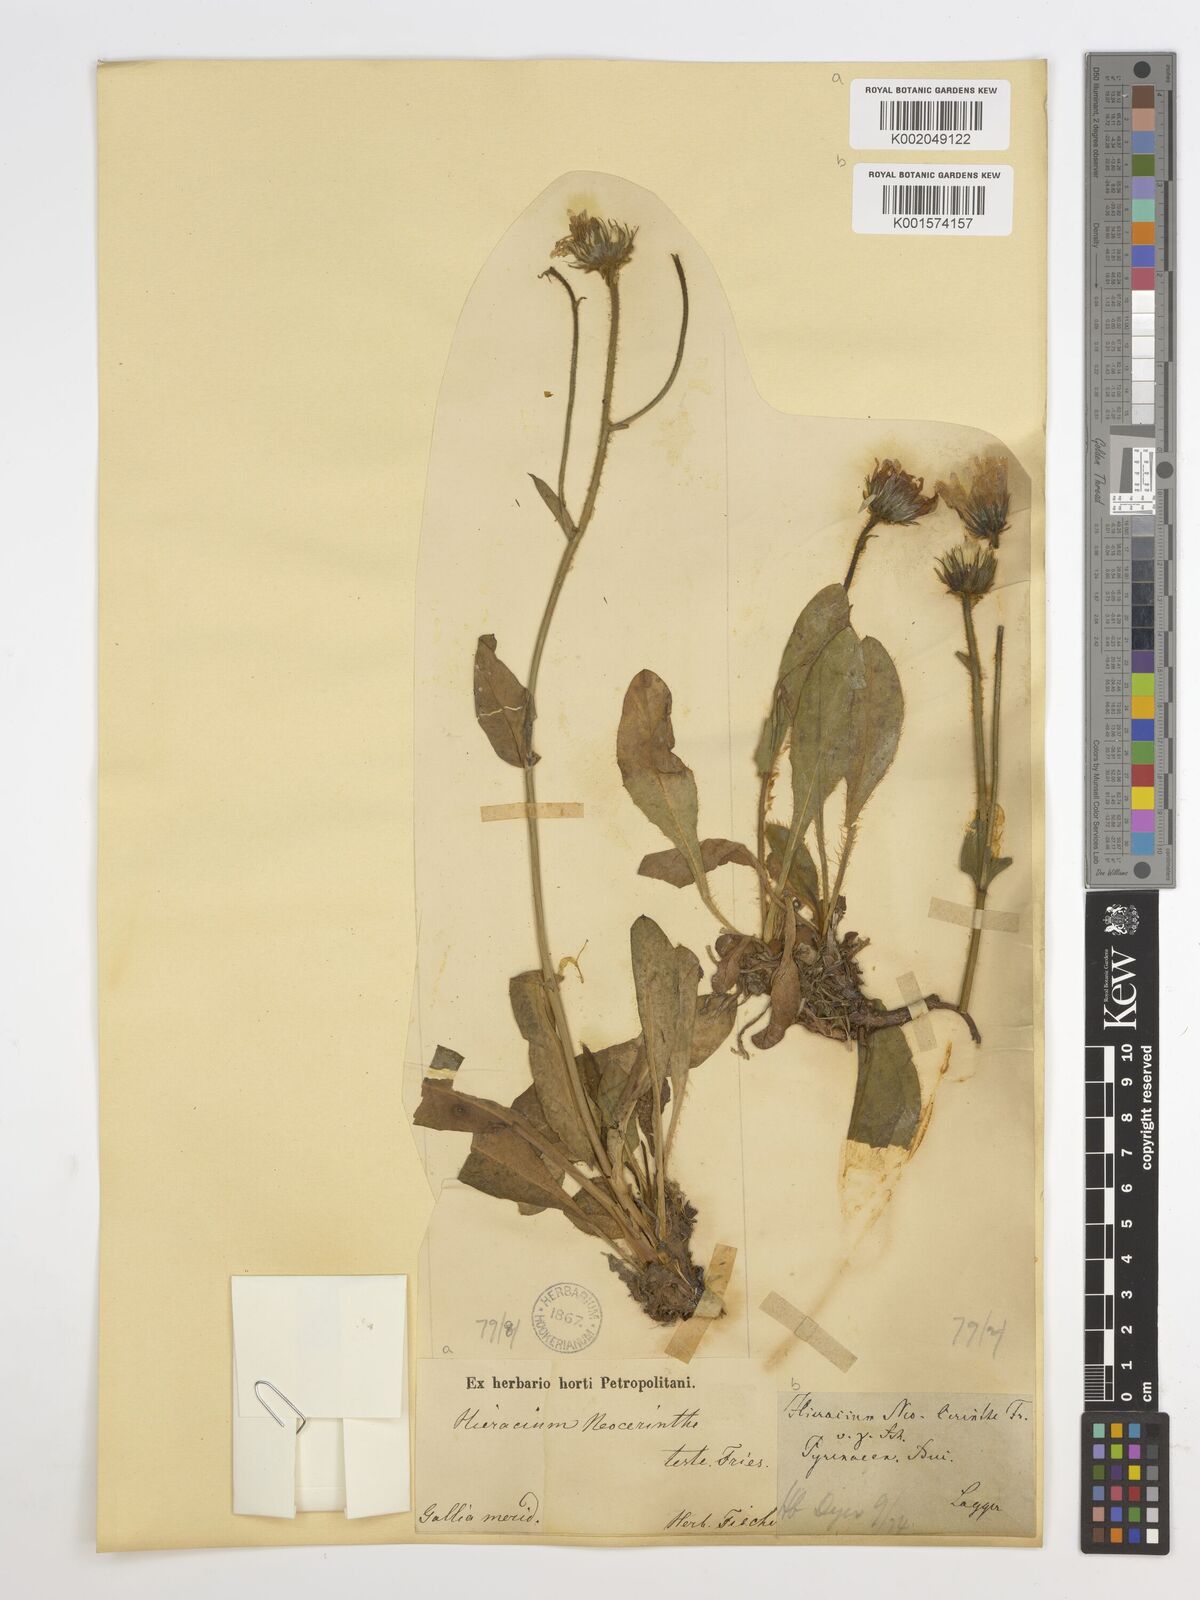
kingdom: Plantae
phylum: Tracheophyta
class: Magnoliopsida
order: Asterales
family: Asteraceae
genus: Hieracium
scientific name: Hieracium neocerinthe
